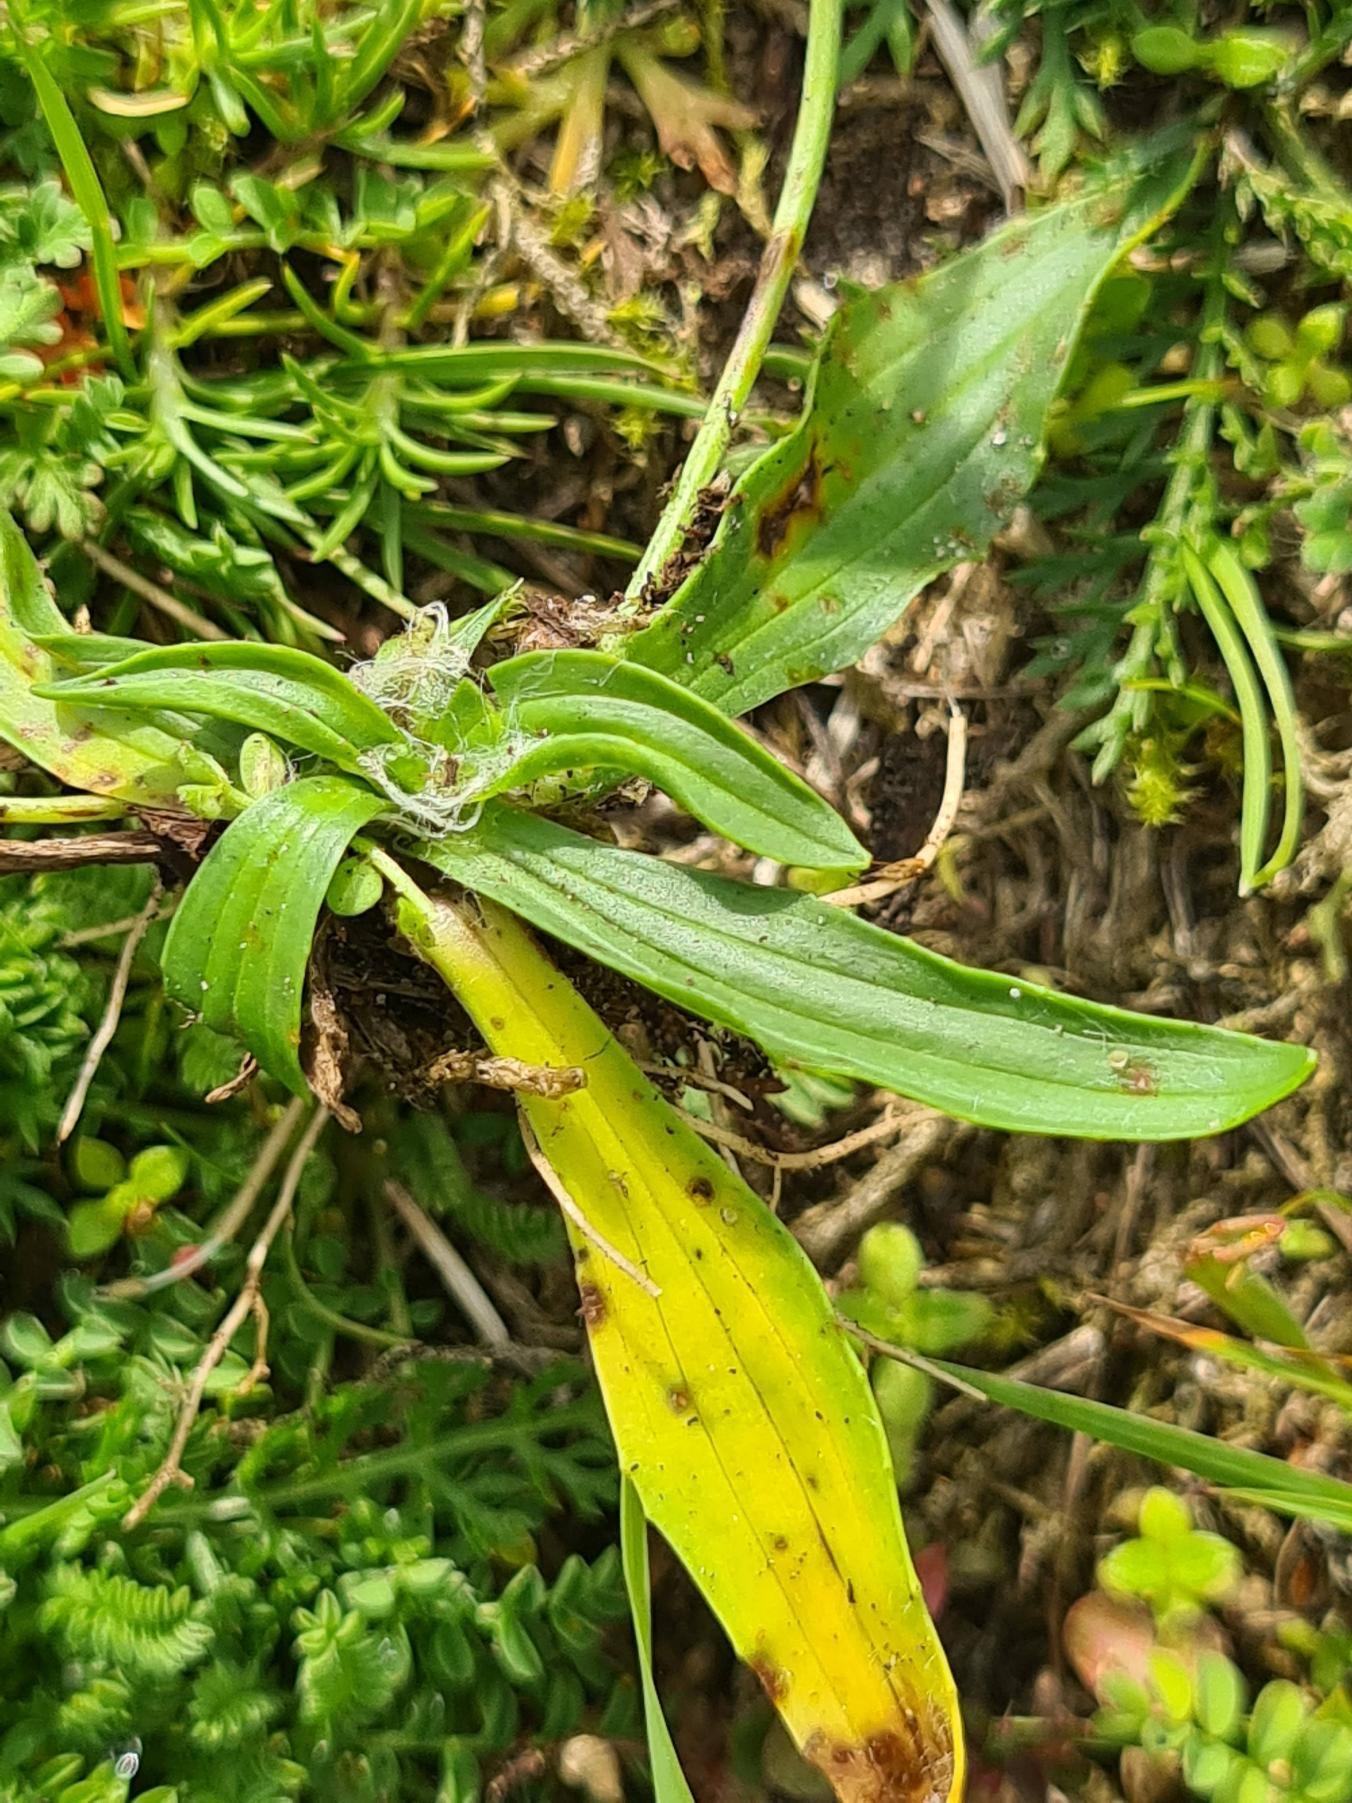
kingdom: Plantae
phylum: Tracheophyta
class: Magnoliopsida
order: Lamiales
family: Plantaginaceae
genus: Plantago
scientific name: Plantago lanceolata
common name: Lancet-vejbred
